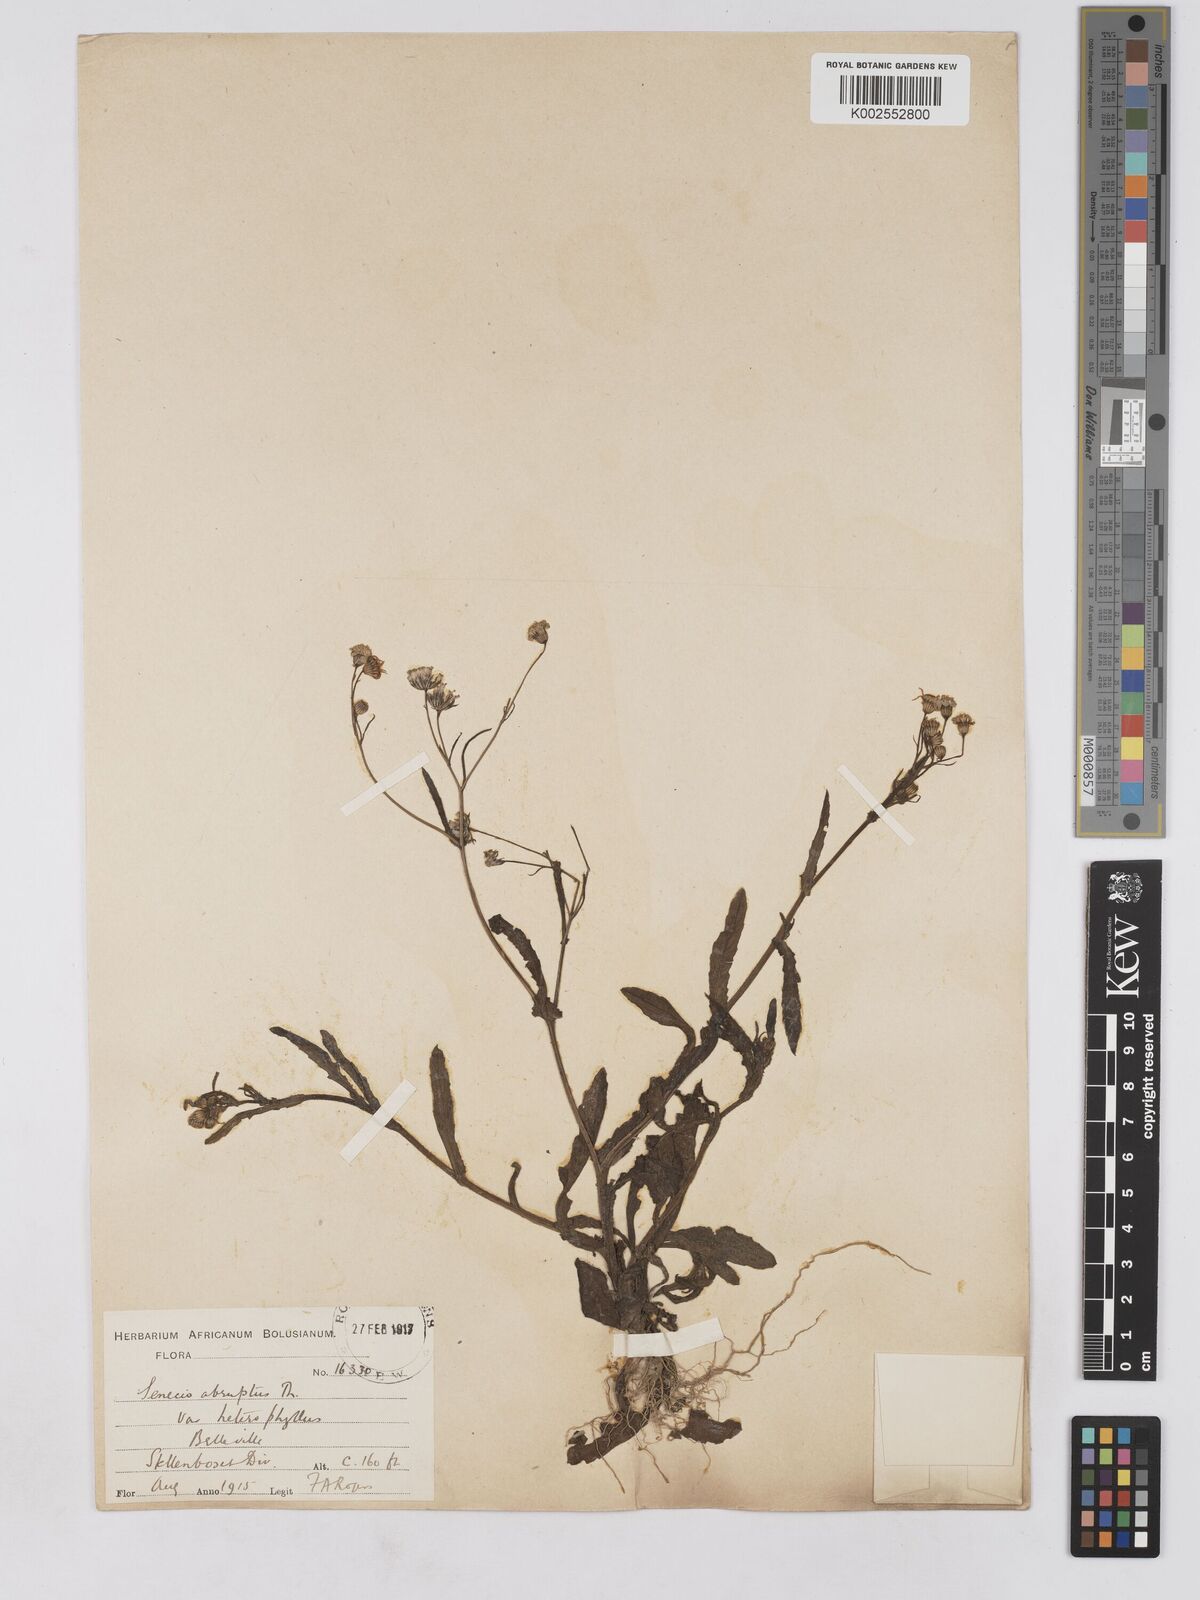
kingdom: Plantae
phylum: Tracheophyta
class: Magnoliopsida
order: Asterales
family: Asteraceae
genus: Senecio
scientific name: Senecio abruptus
